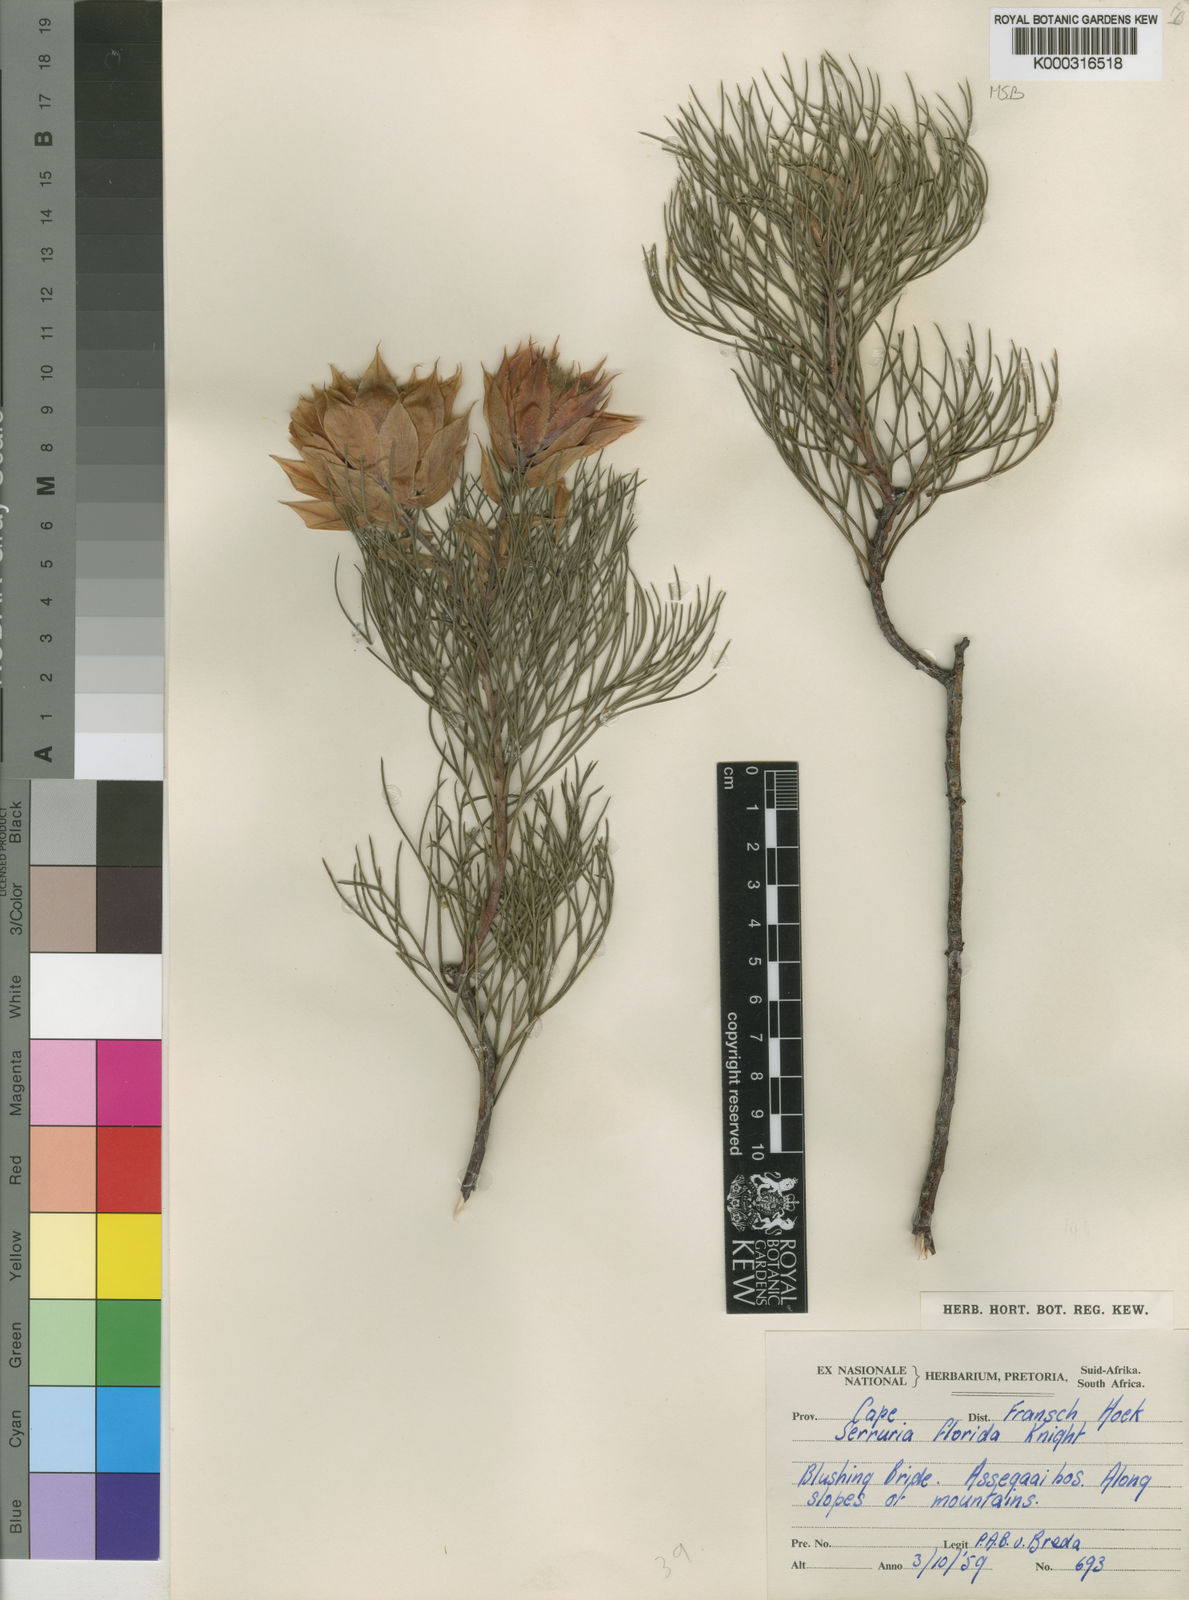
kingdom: Plantae
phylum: Tracheophyta
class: Magnoliopsida
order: Proteales
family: Proteaceae
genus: Serruria
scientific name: Serruria florida
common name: Blushing bride
